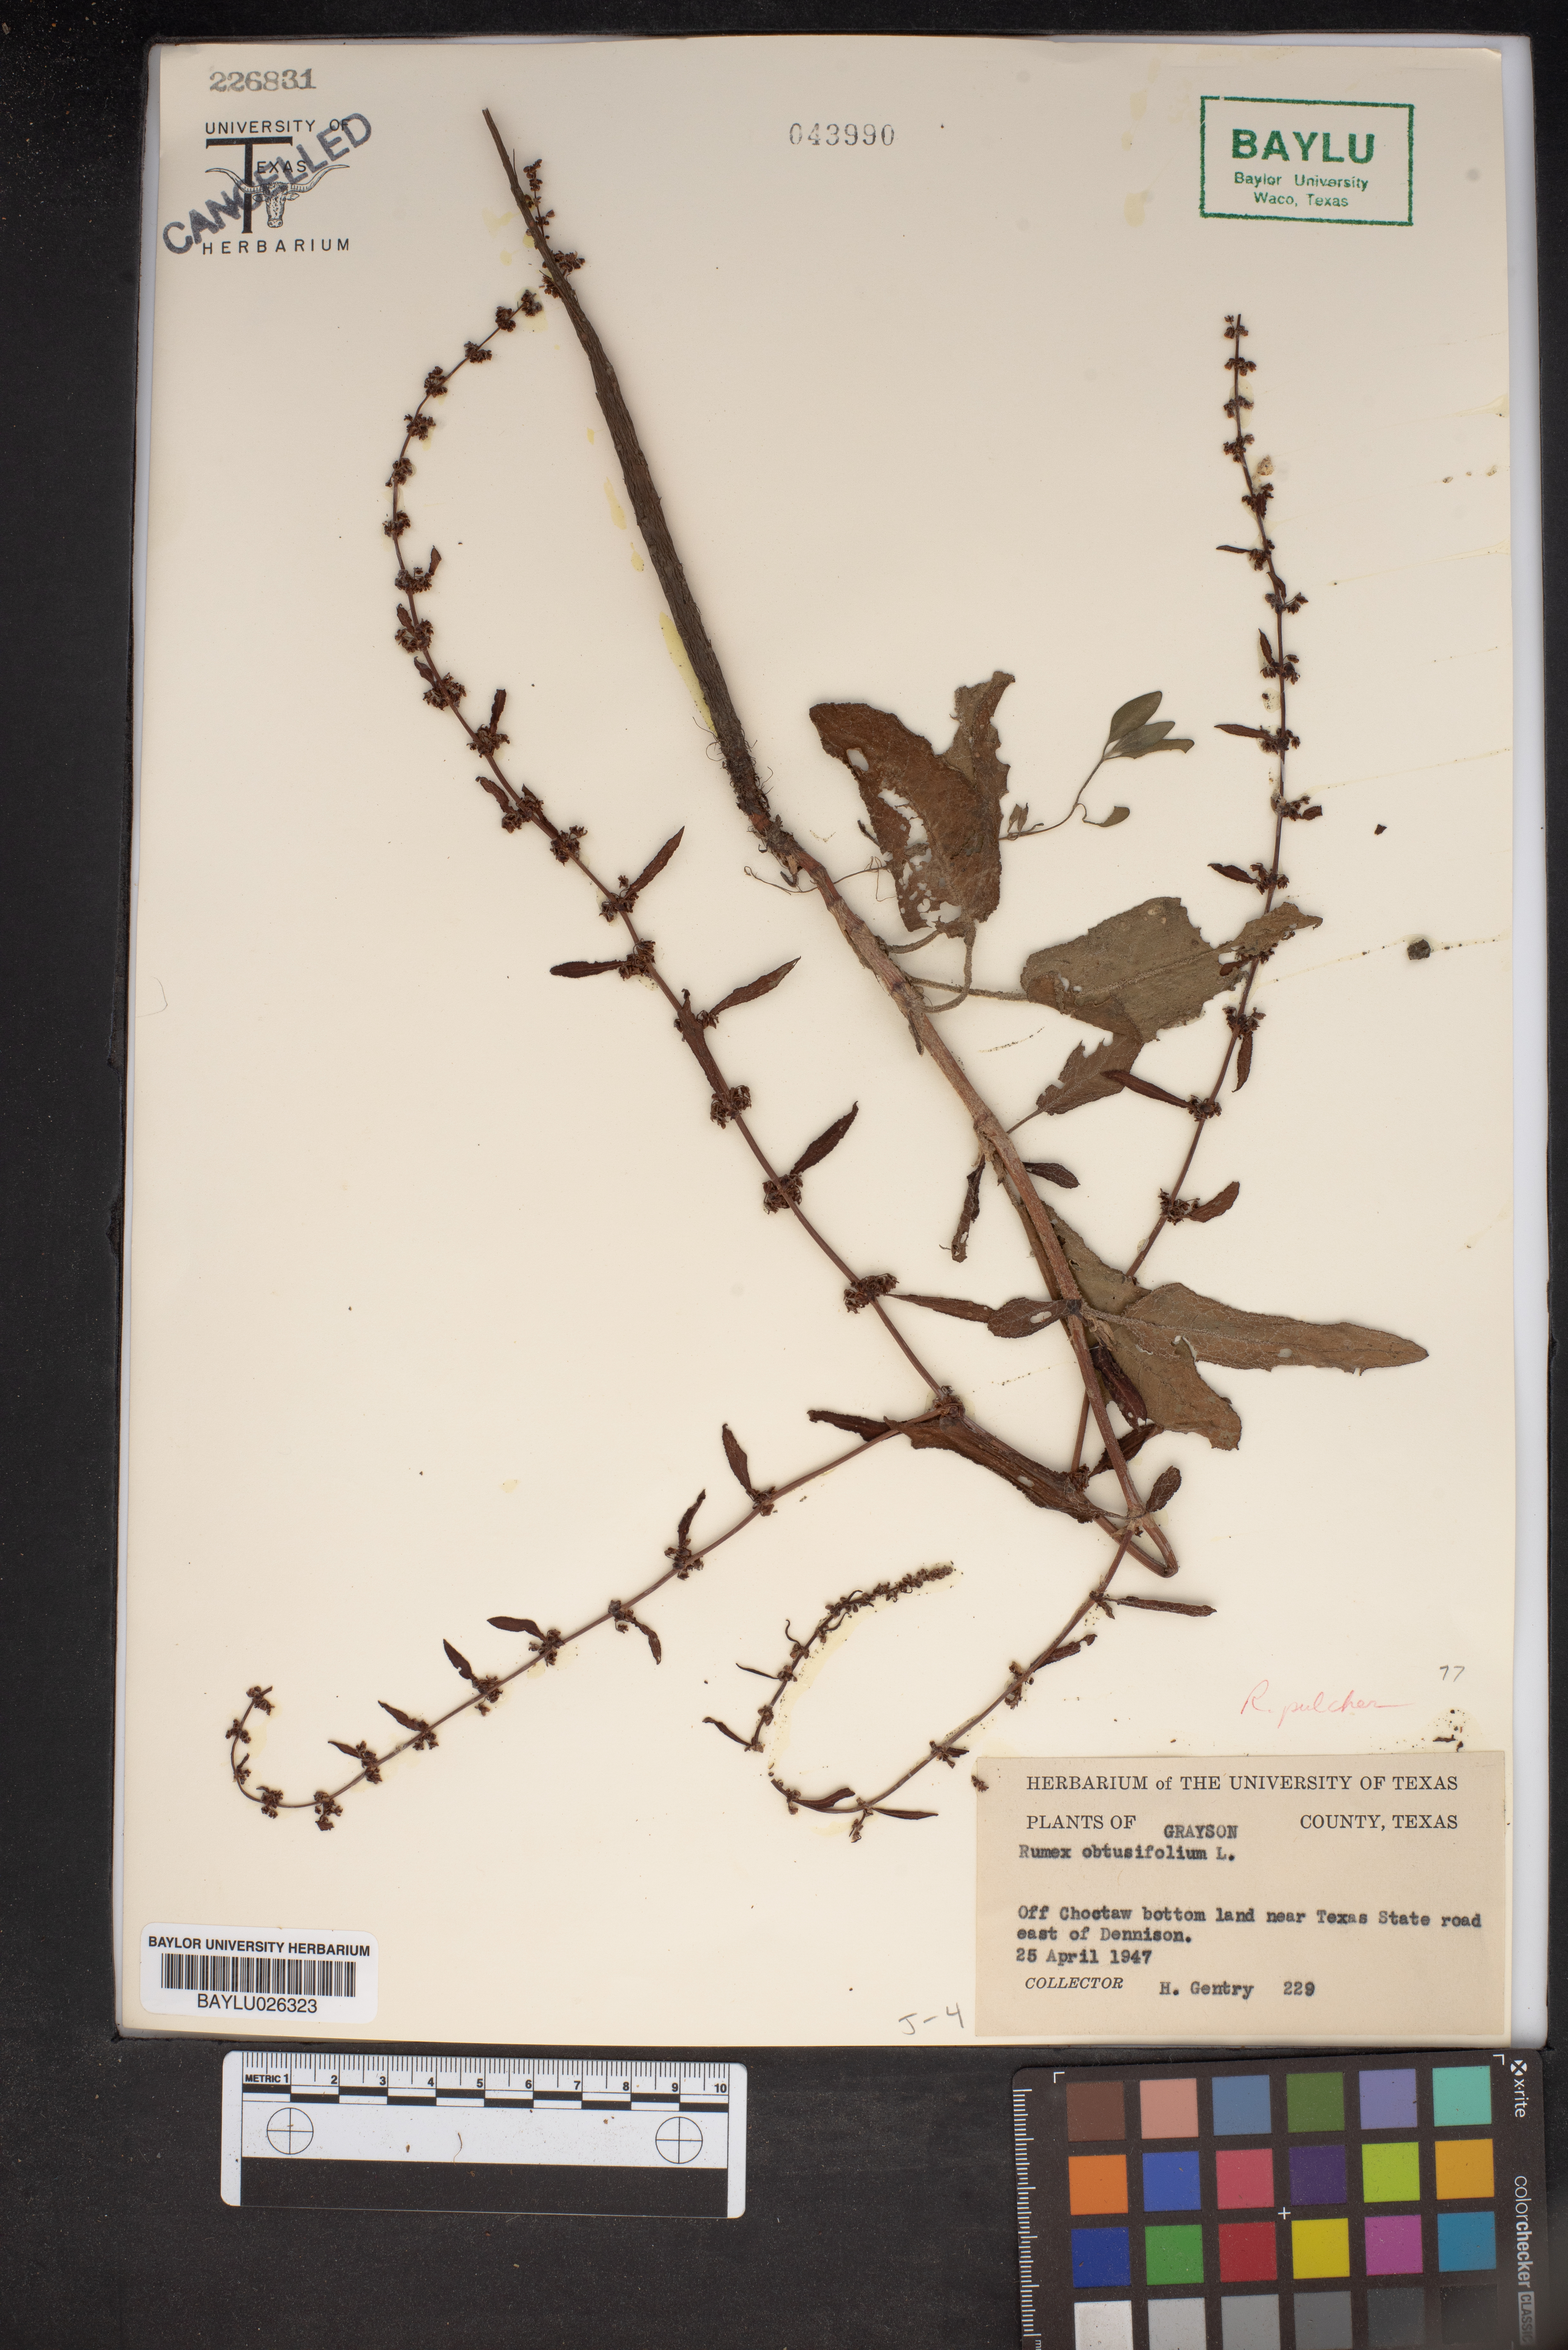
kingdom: Plantae
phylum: Tracheophyta
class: Magnoliopsida
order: Caryophyllales
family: Polygonaceae
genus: Rumex
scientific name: Rumex obtusifolius
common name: Bitter dock
